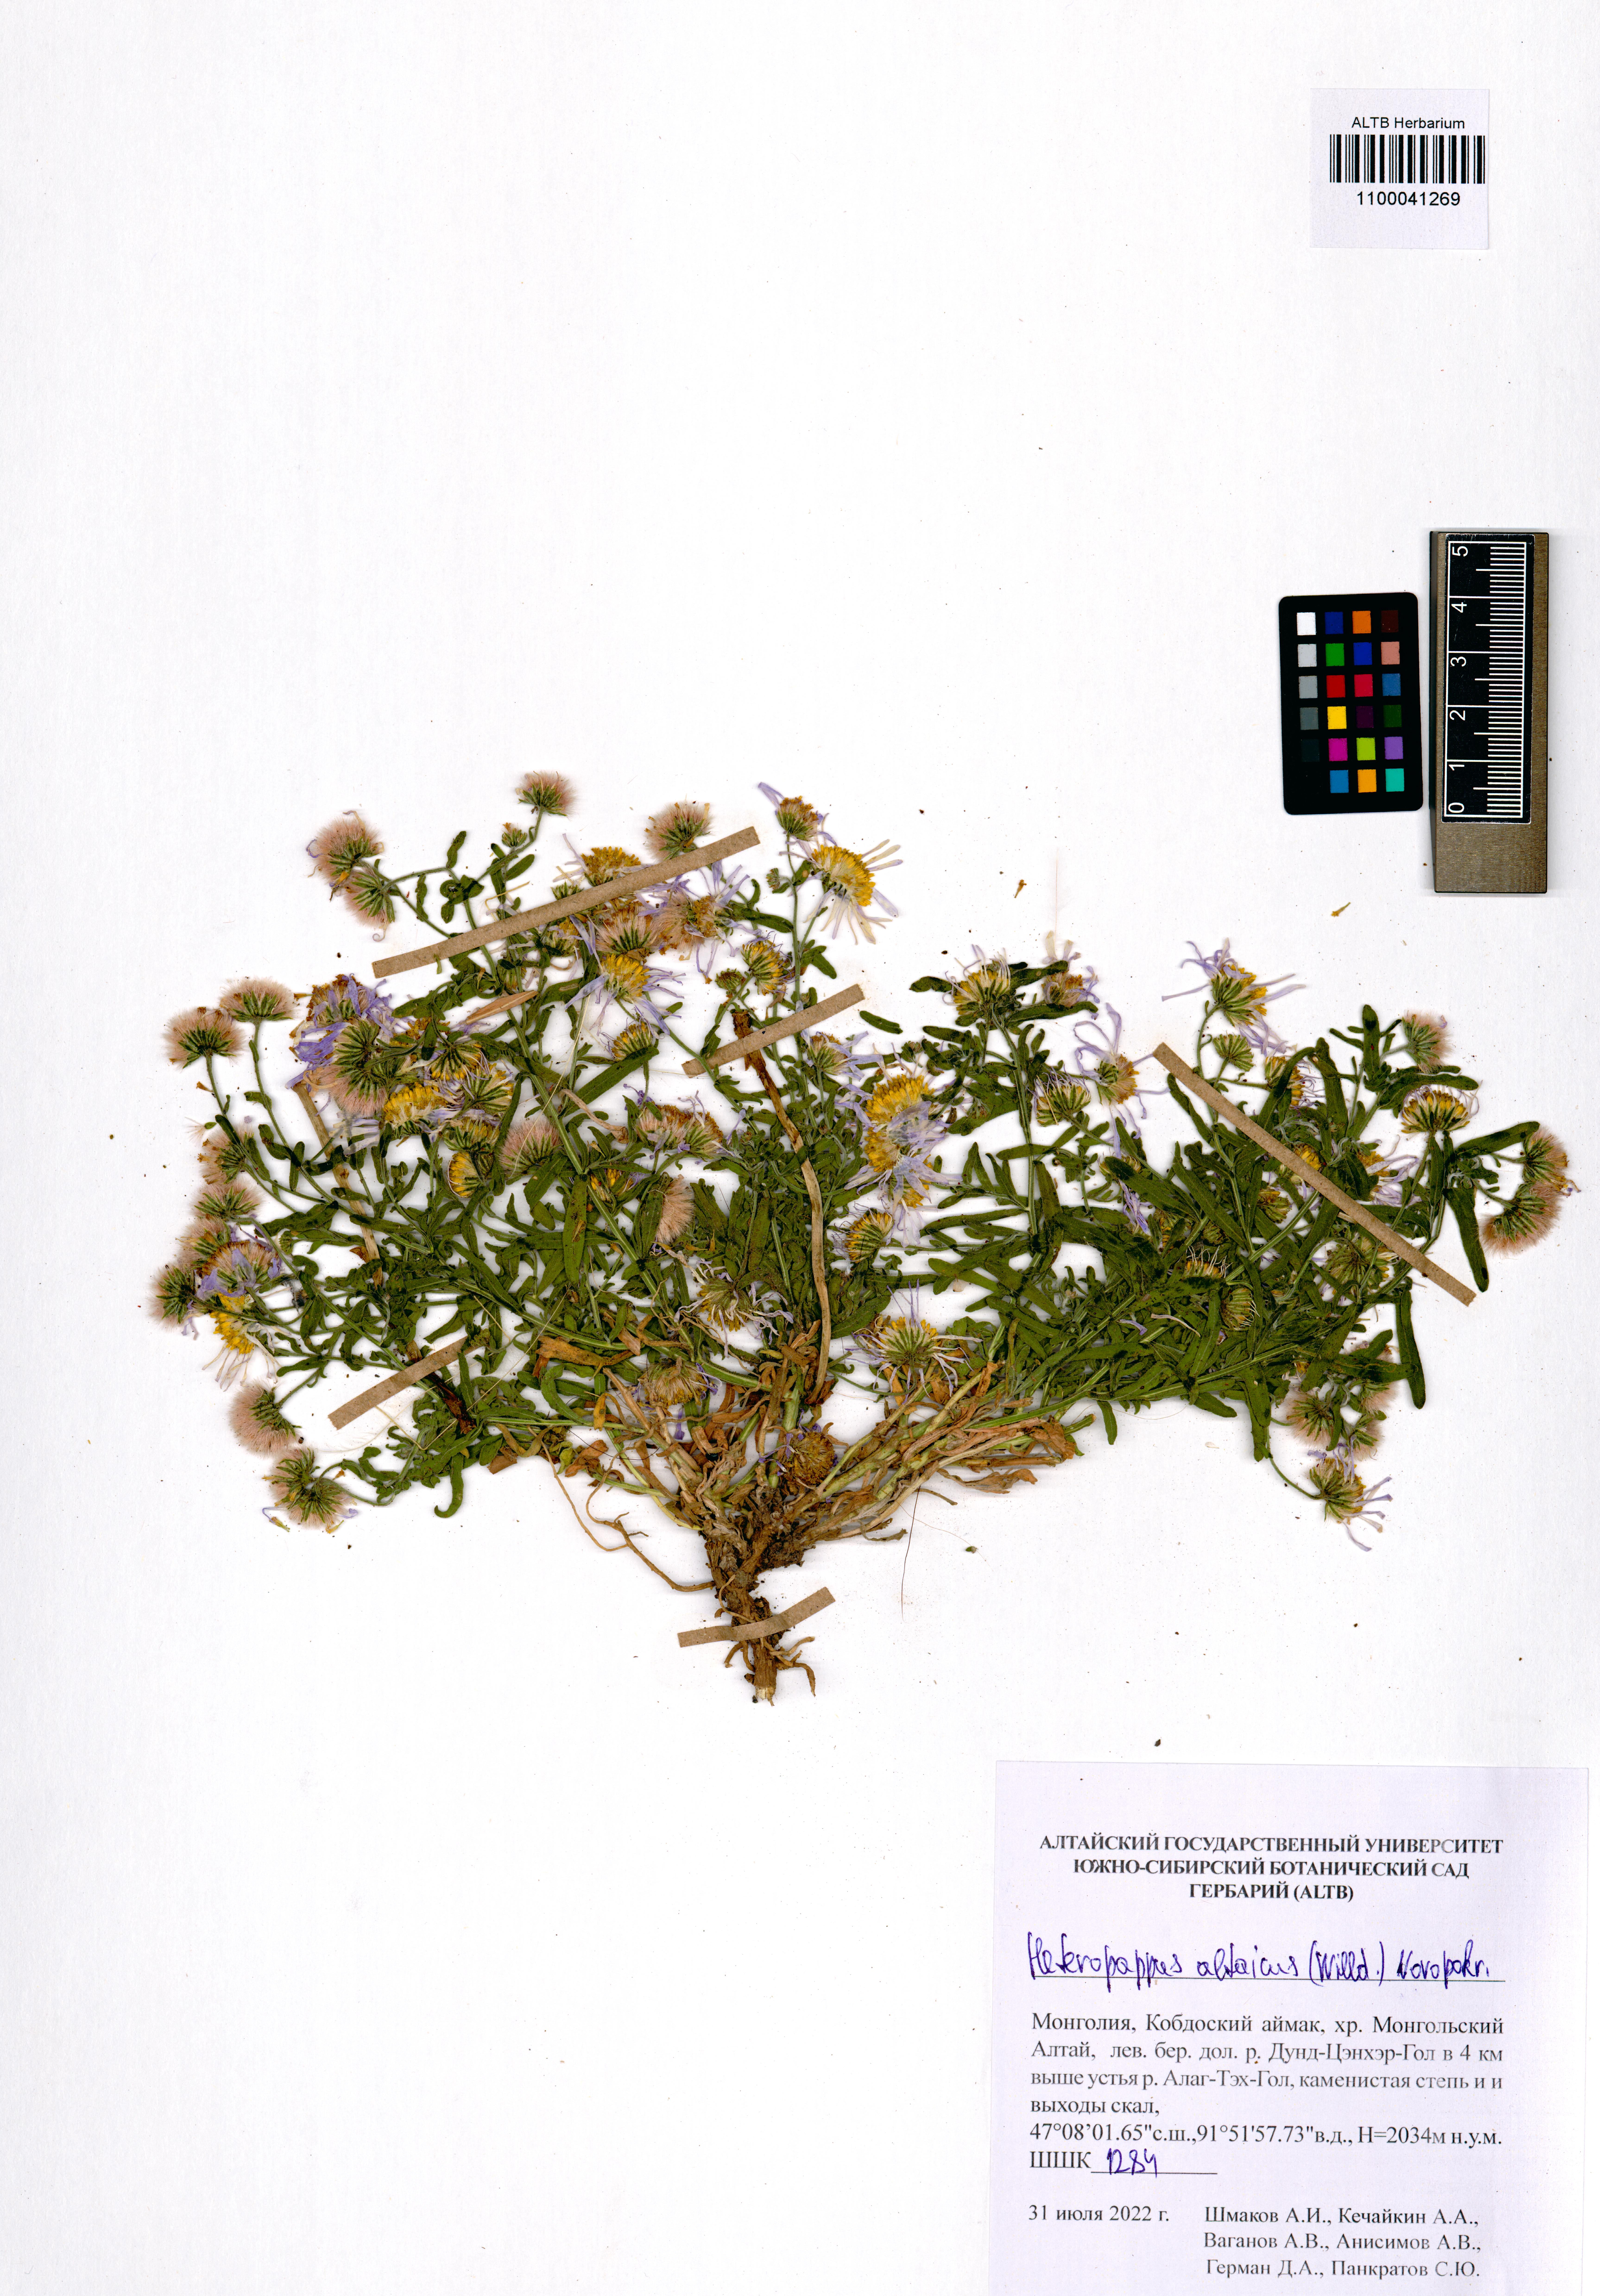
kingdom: Plantae
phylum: Tracheophyta
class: Magnoliopsida
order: Asterales
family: Asteraceae
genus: Heteropappus
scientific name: Heteropappus altaicus
